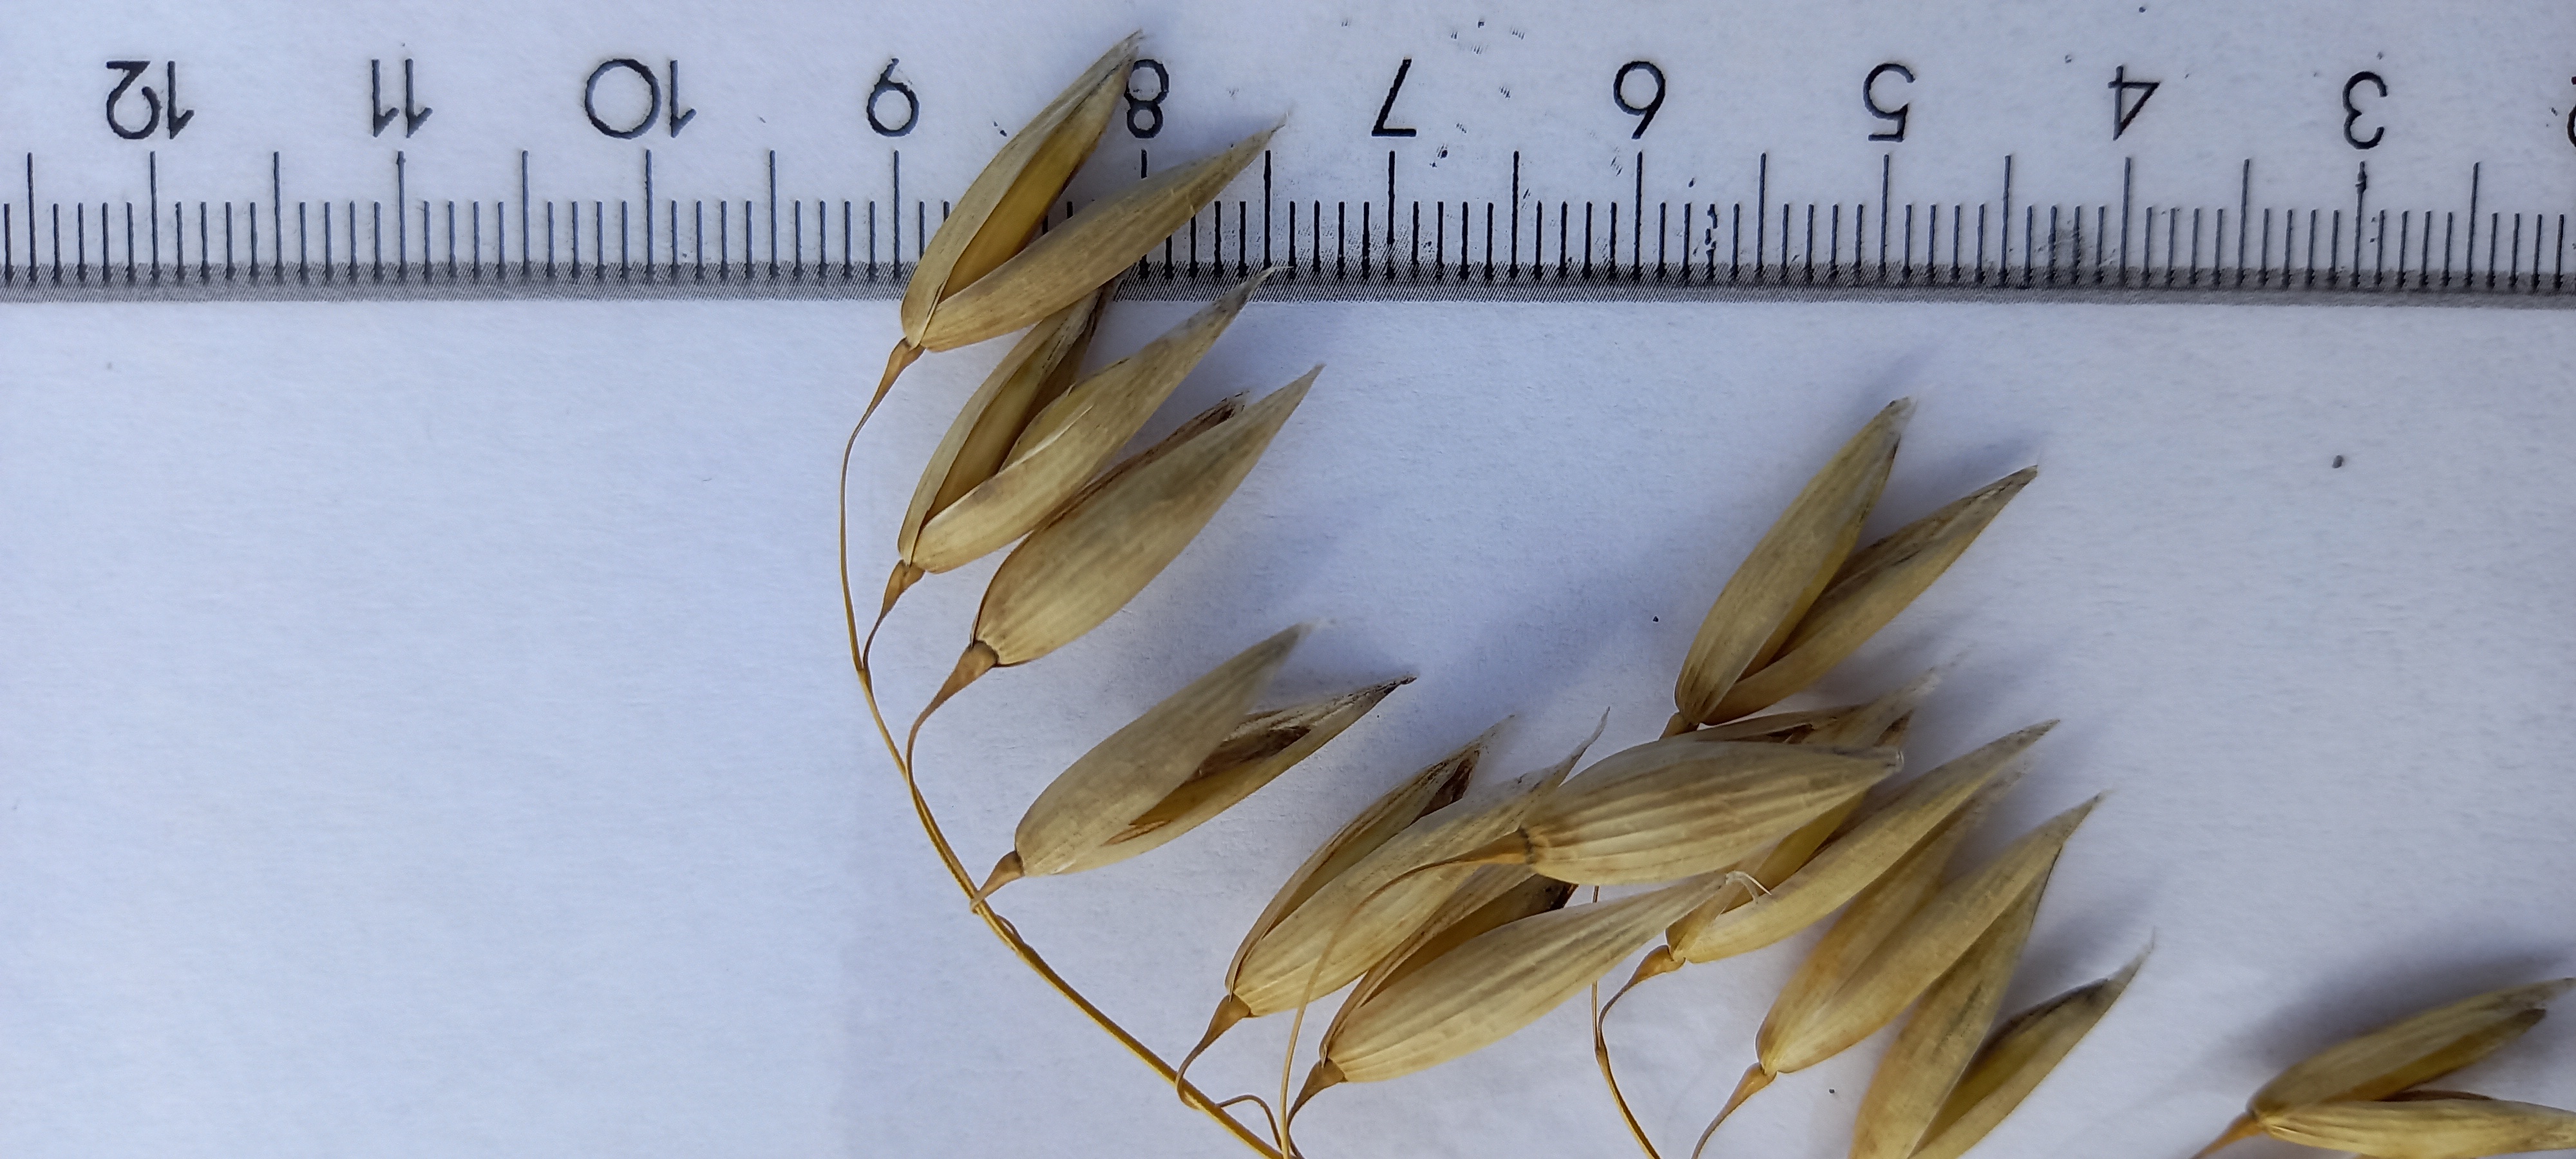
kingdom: Plantae
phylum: Tracheophyta
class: Liliopsida
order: Poales
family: Poaceae
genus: Avena
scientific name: Avena sativa
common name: Oat
